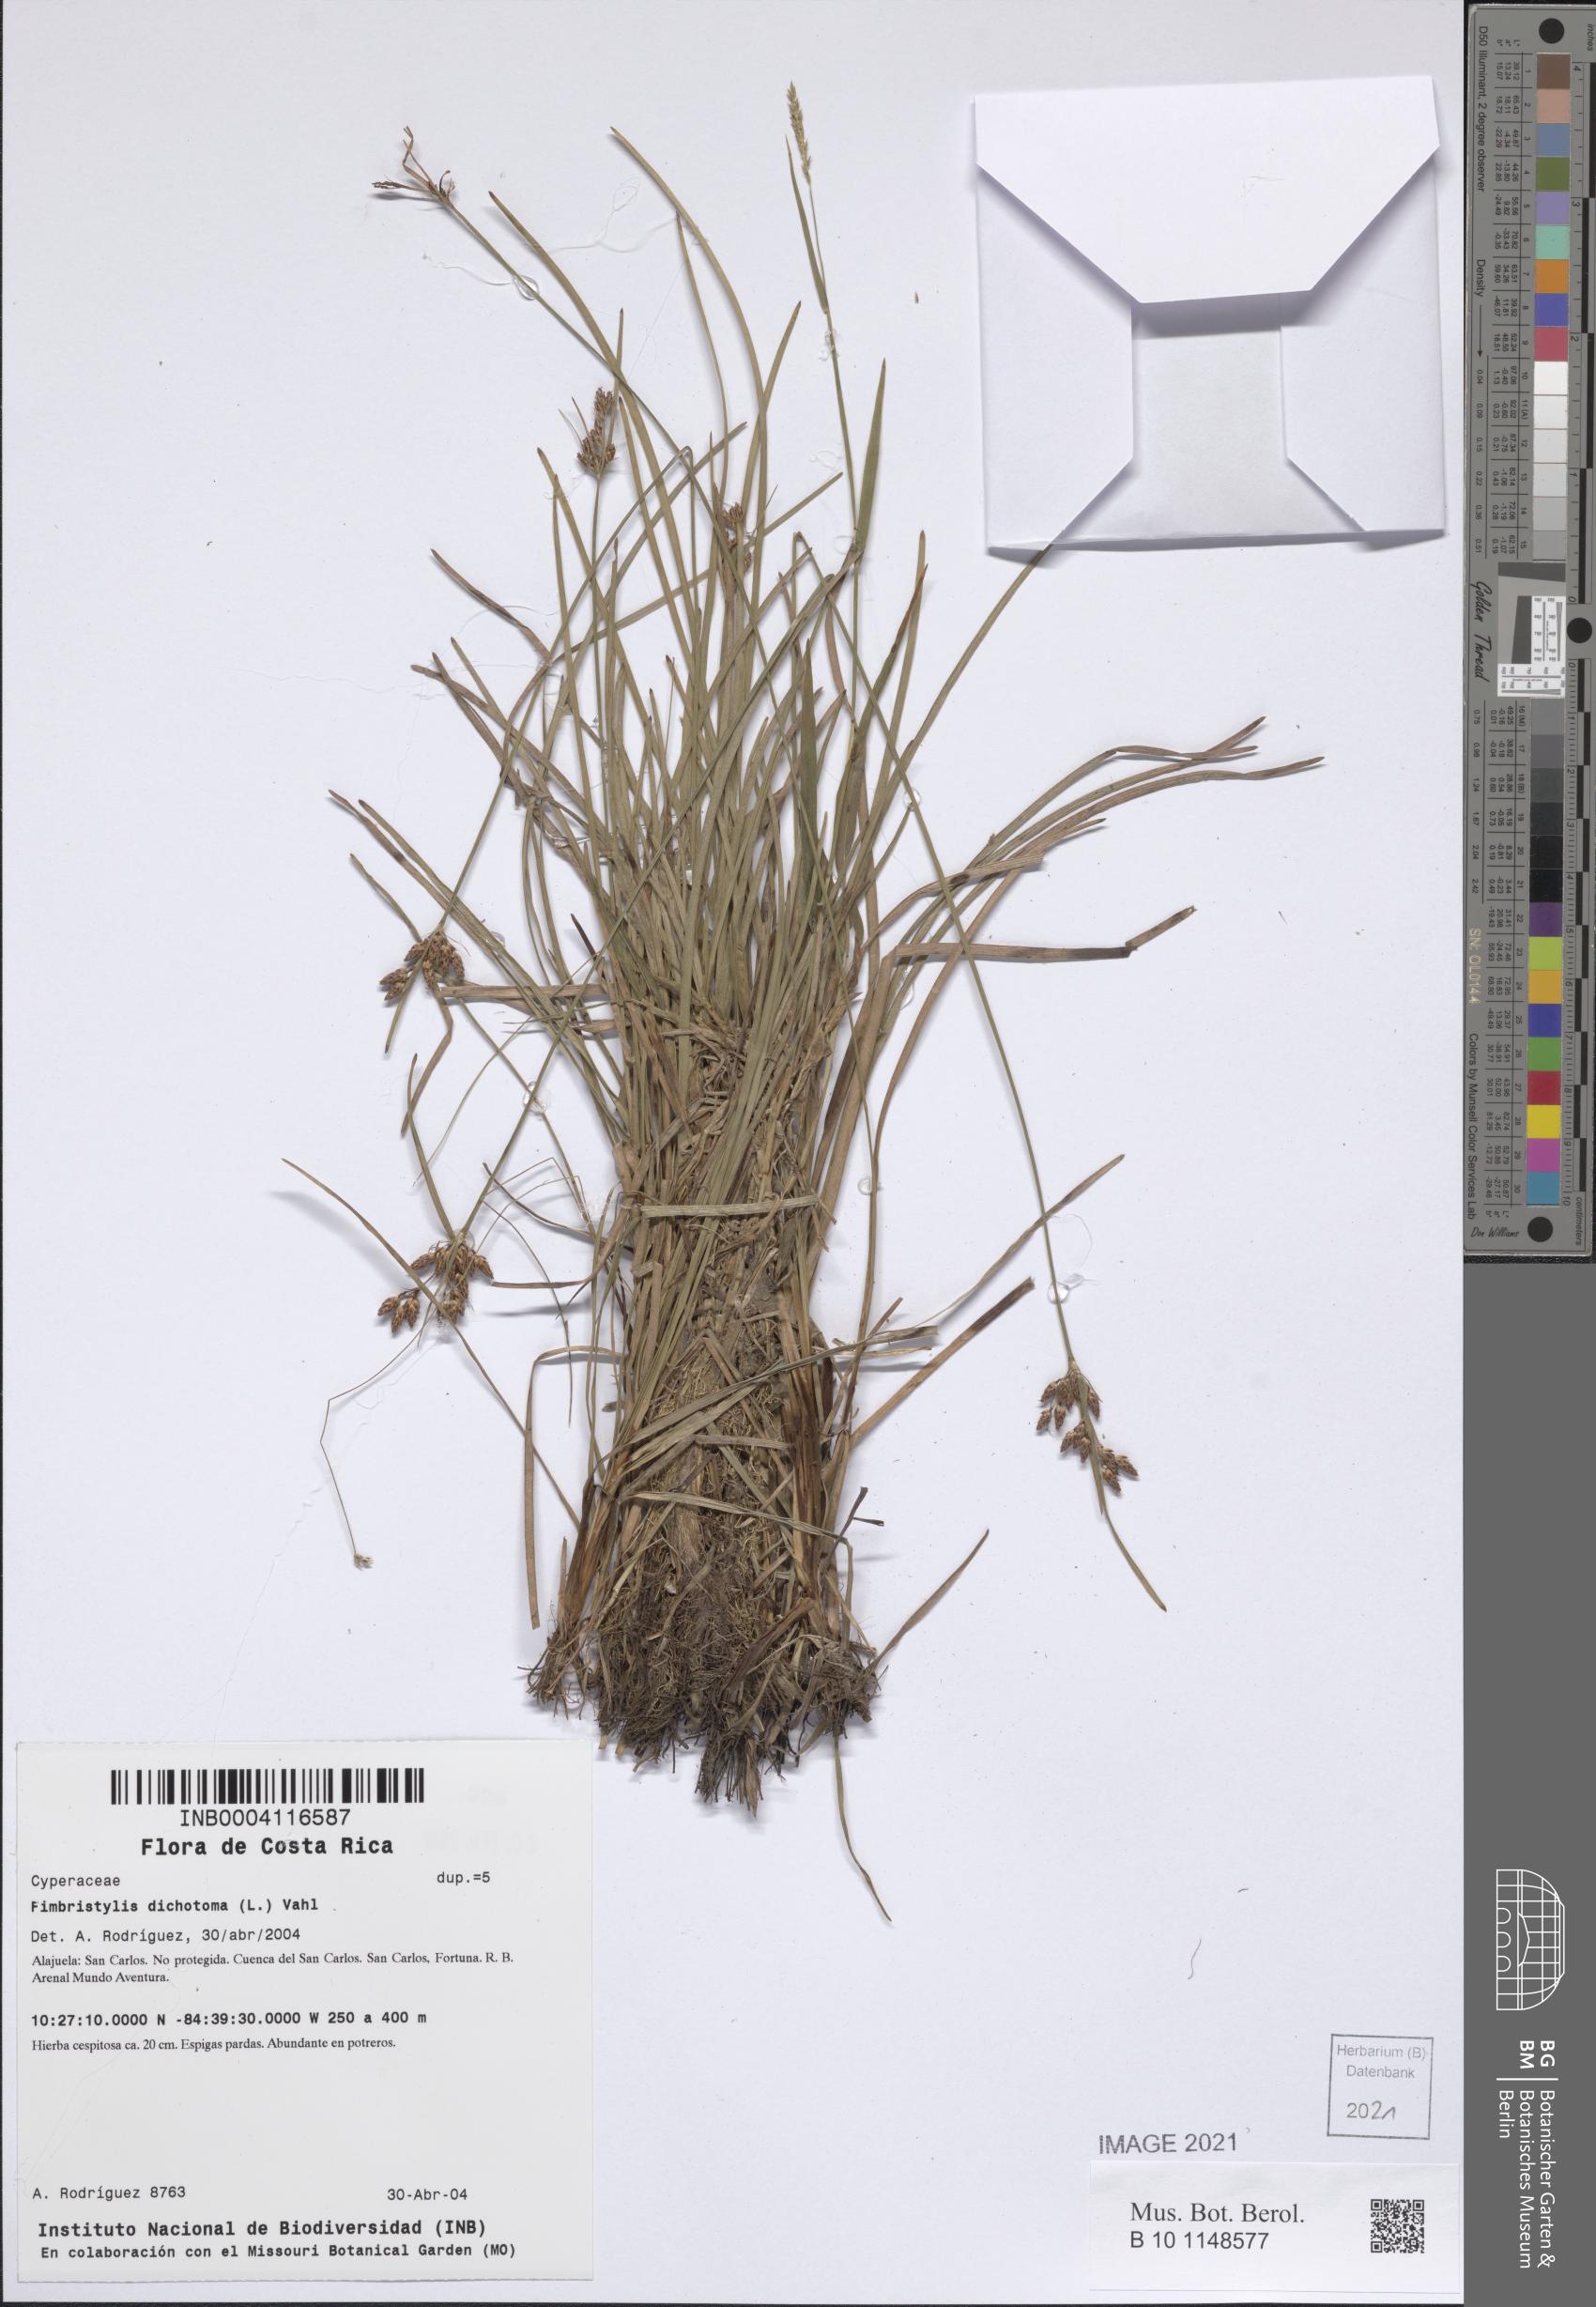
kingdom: Plantae
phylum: Tracheophyta
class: Liliopsida
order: Poales
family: Cyperaceae
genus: Fimbristylis
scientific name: Fimbristylis dichotoma
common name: Forked fimbry
